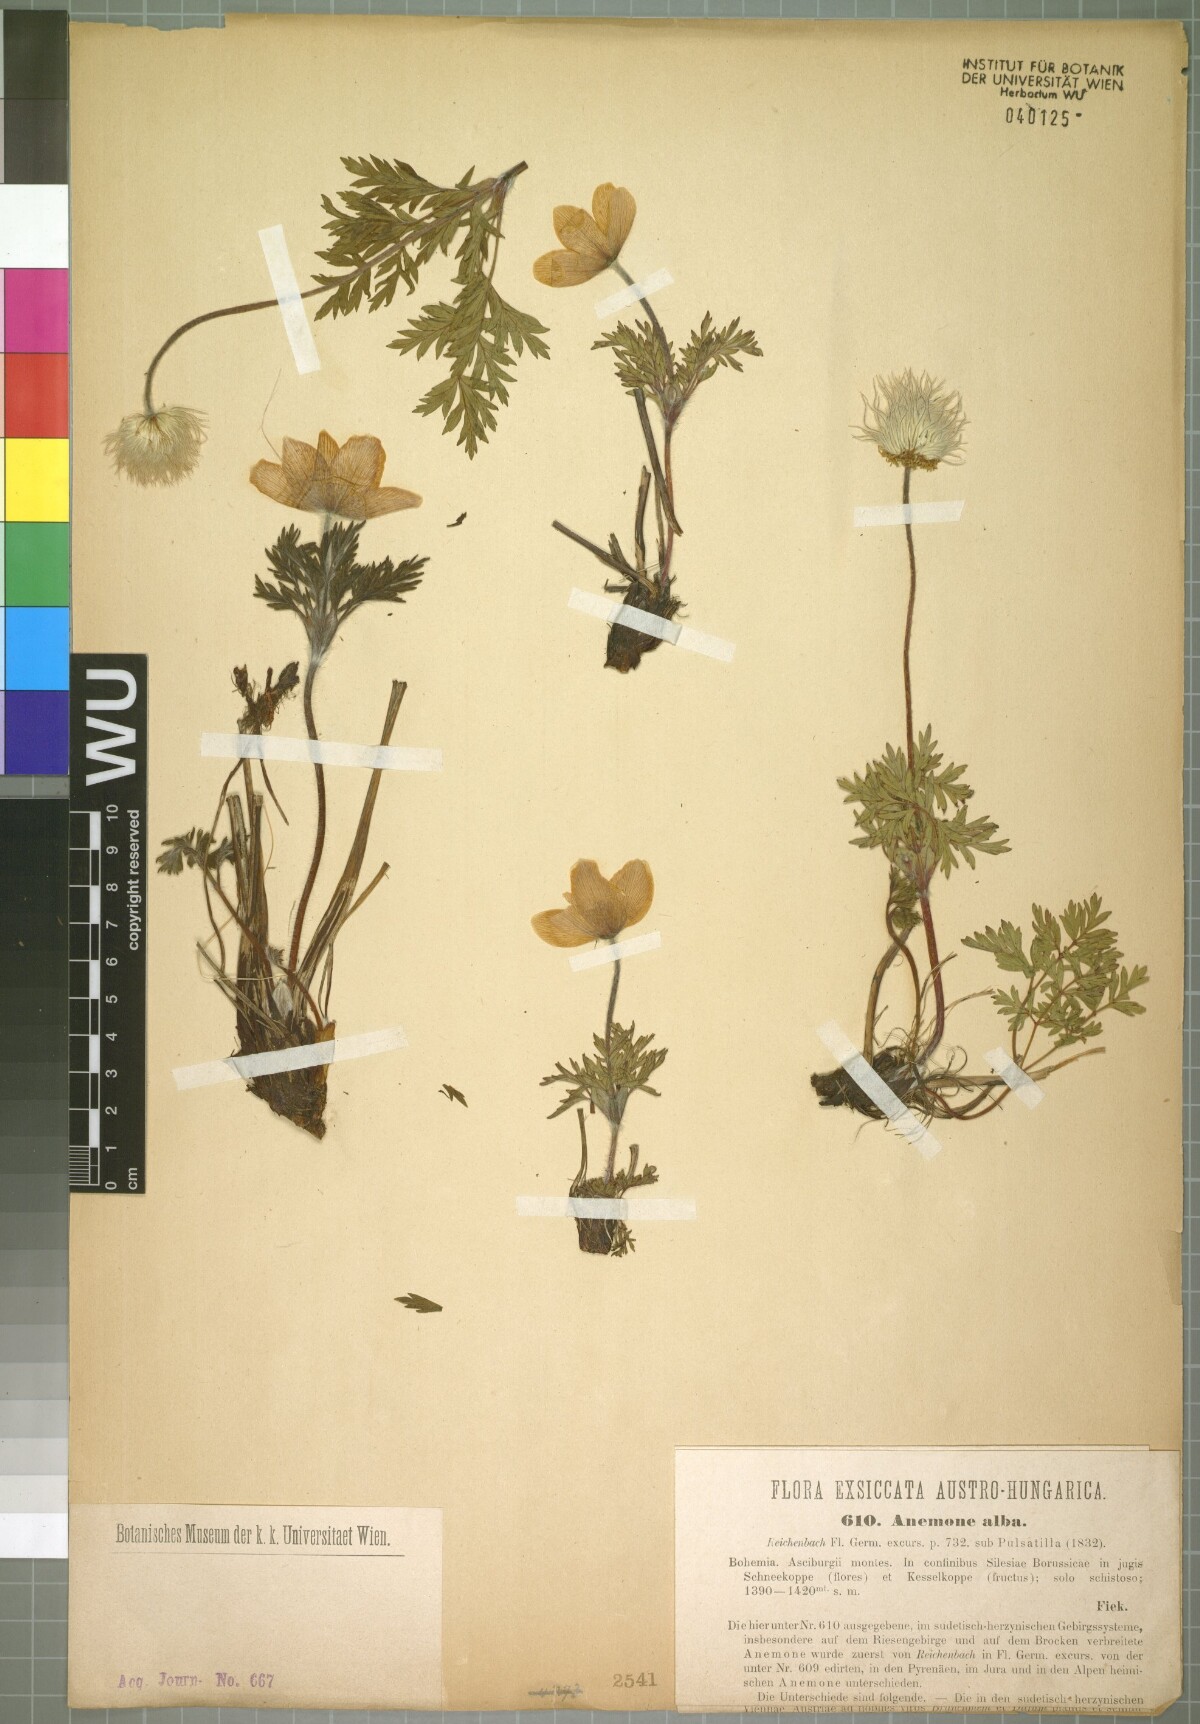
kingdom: Plantae
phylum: Tracheophyta
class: Magnoliopsida
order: Ranunculales
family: Ranunculaceae
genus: Pulsatilla
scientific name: Pulsatilla alpina
